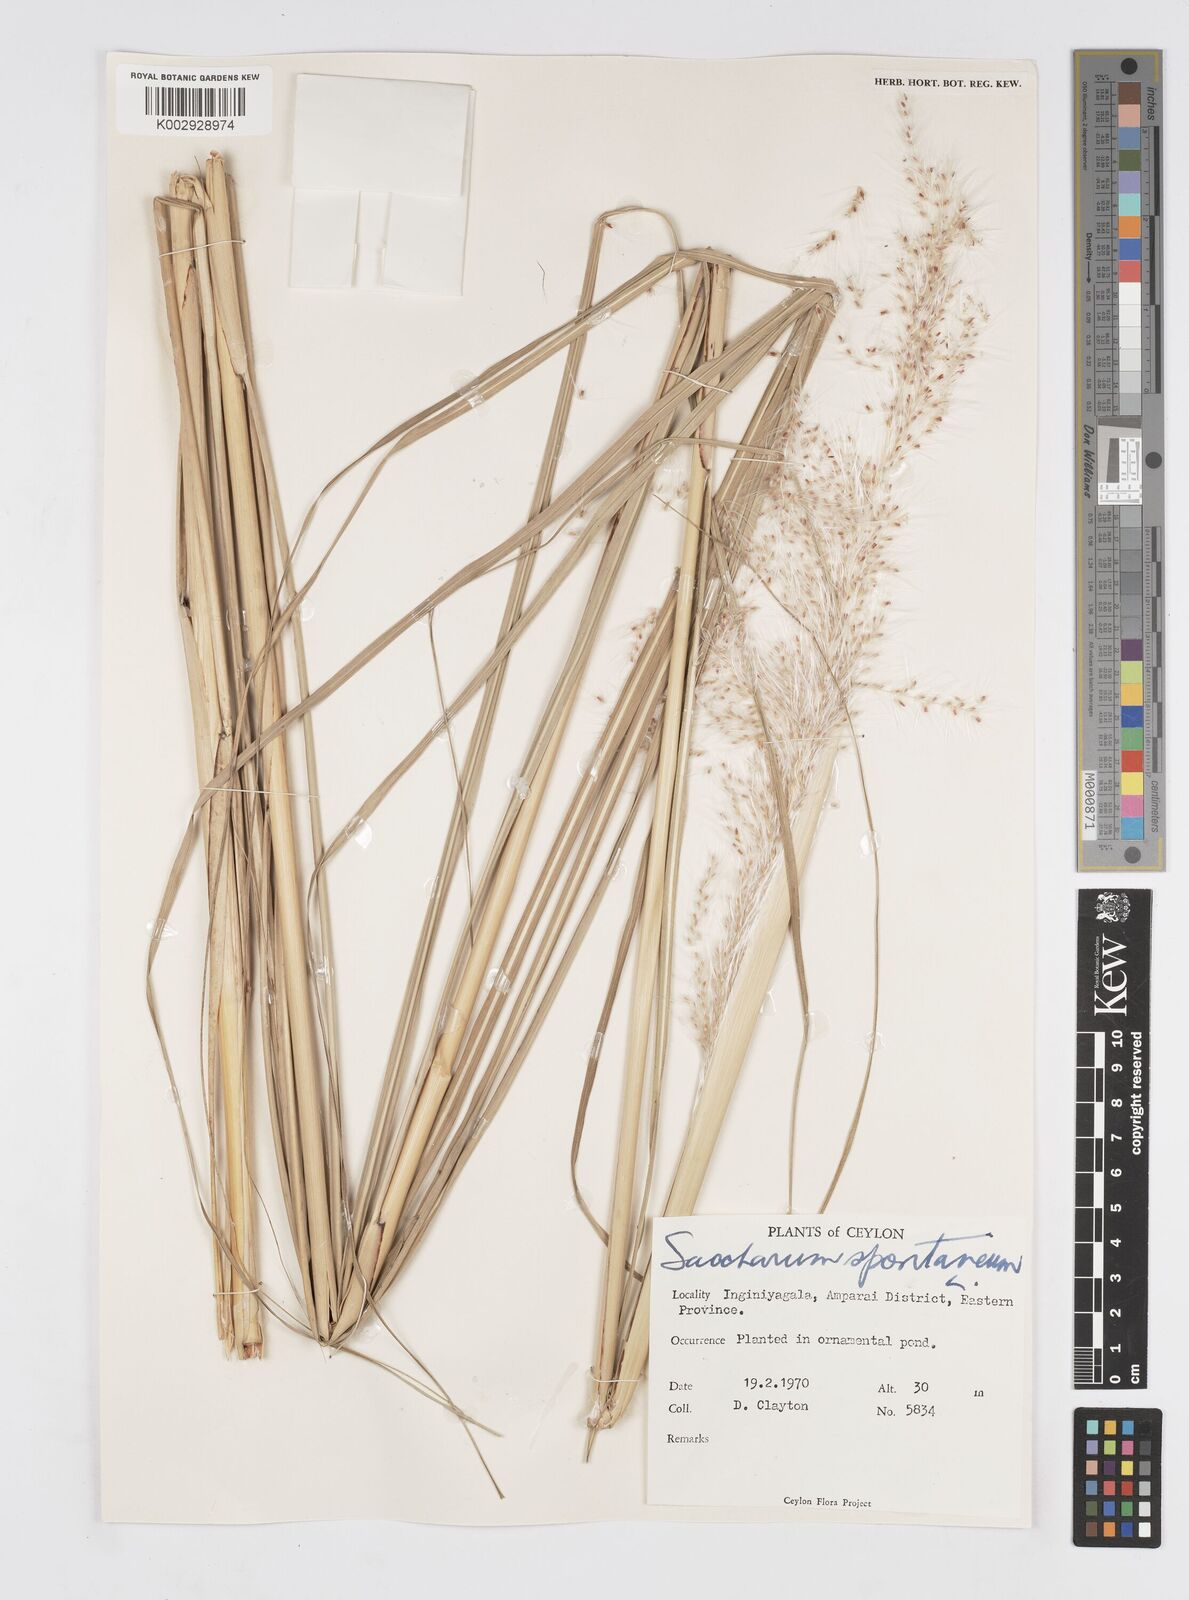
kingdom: Plantae
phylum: Tracheophyta
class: Liliopsida
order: Poales
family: Poaceae
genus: Saccharum
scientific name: Saccharum spontaneum
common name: Wild sugarcane
